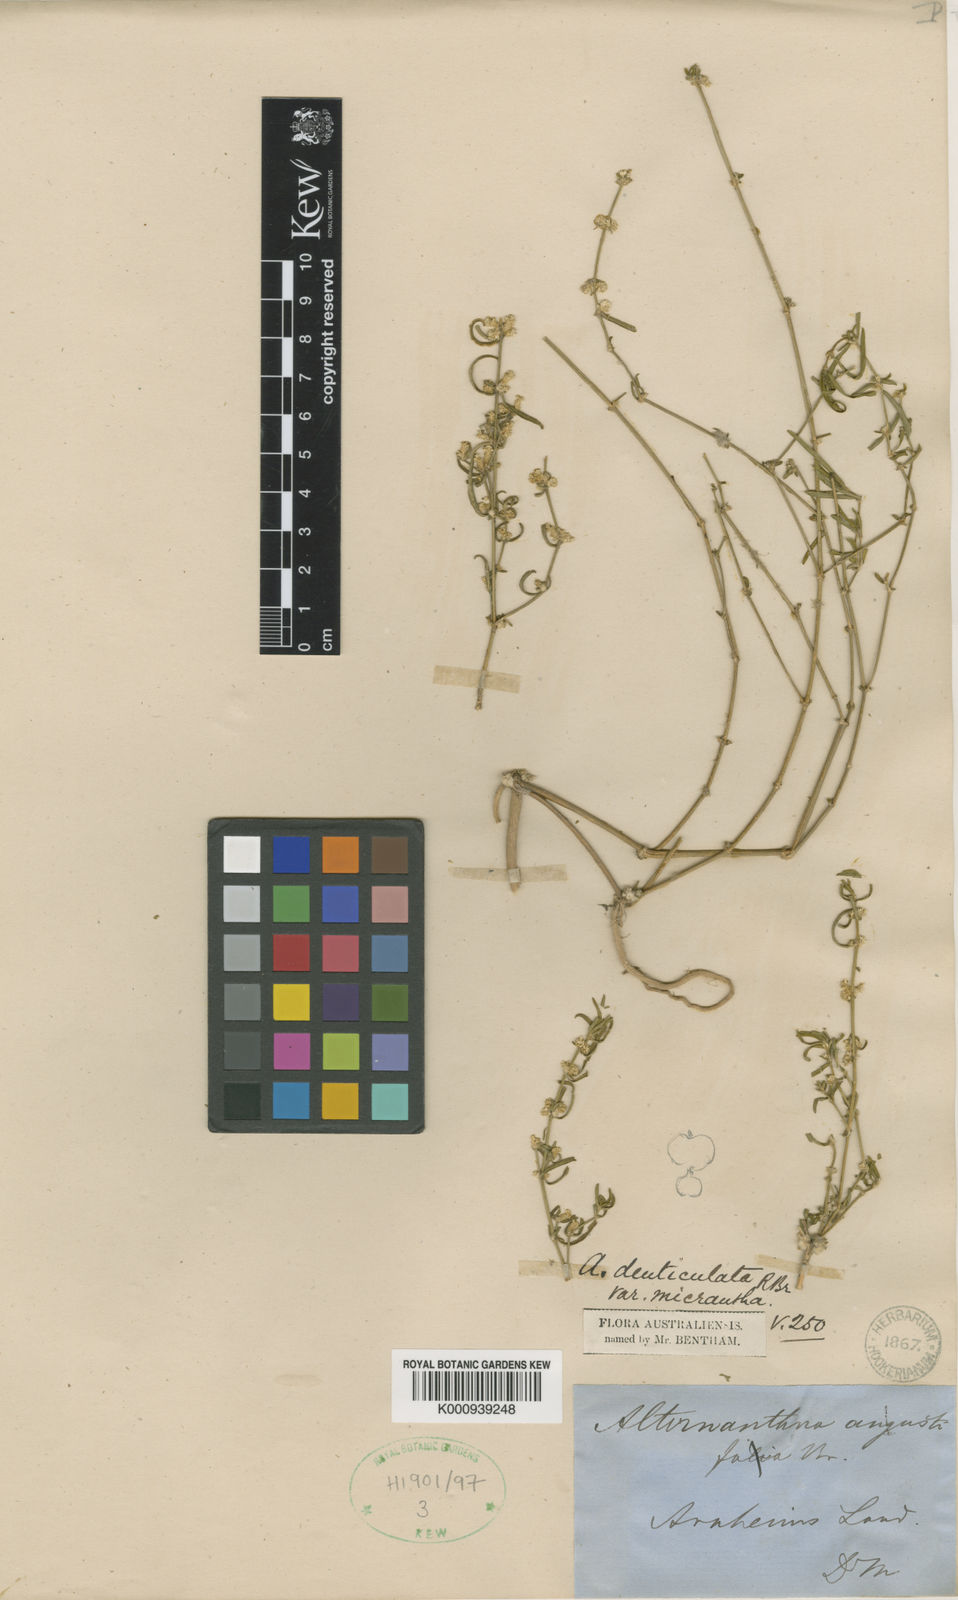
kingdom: Plantae
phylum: Tracheophyta
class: Magnoliopsida
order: Caryophyllales
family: Amaranthaceae
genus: Alternanthera
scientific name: Alternanthera denticulata
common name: Lesser joyweed
